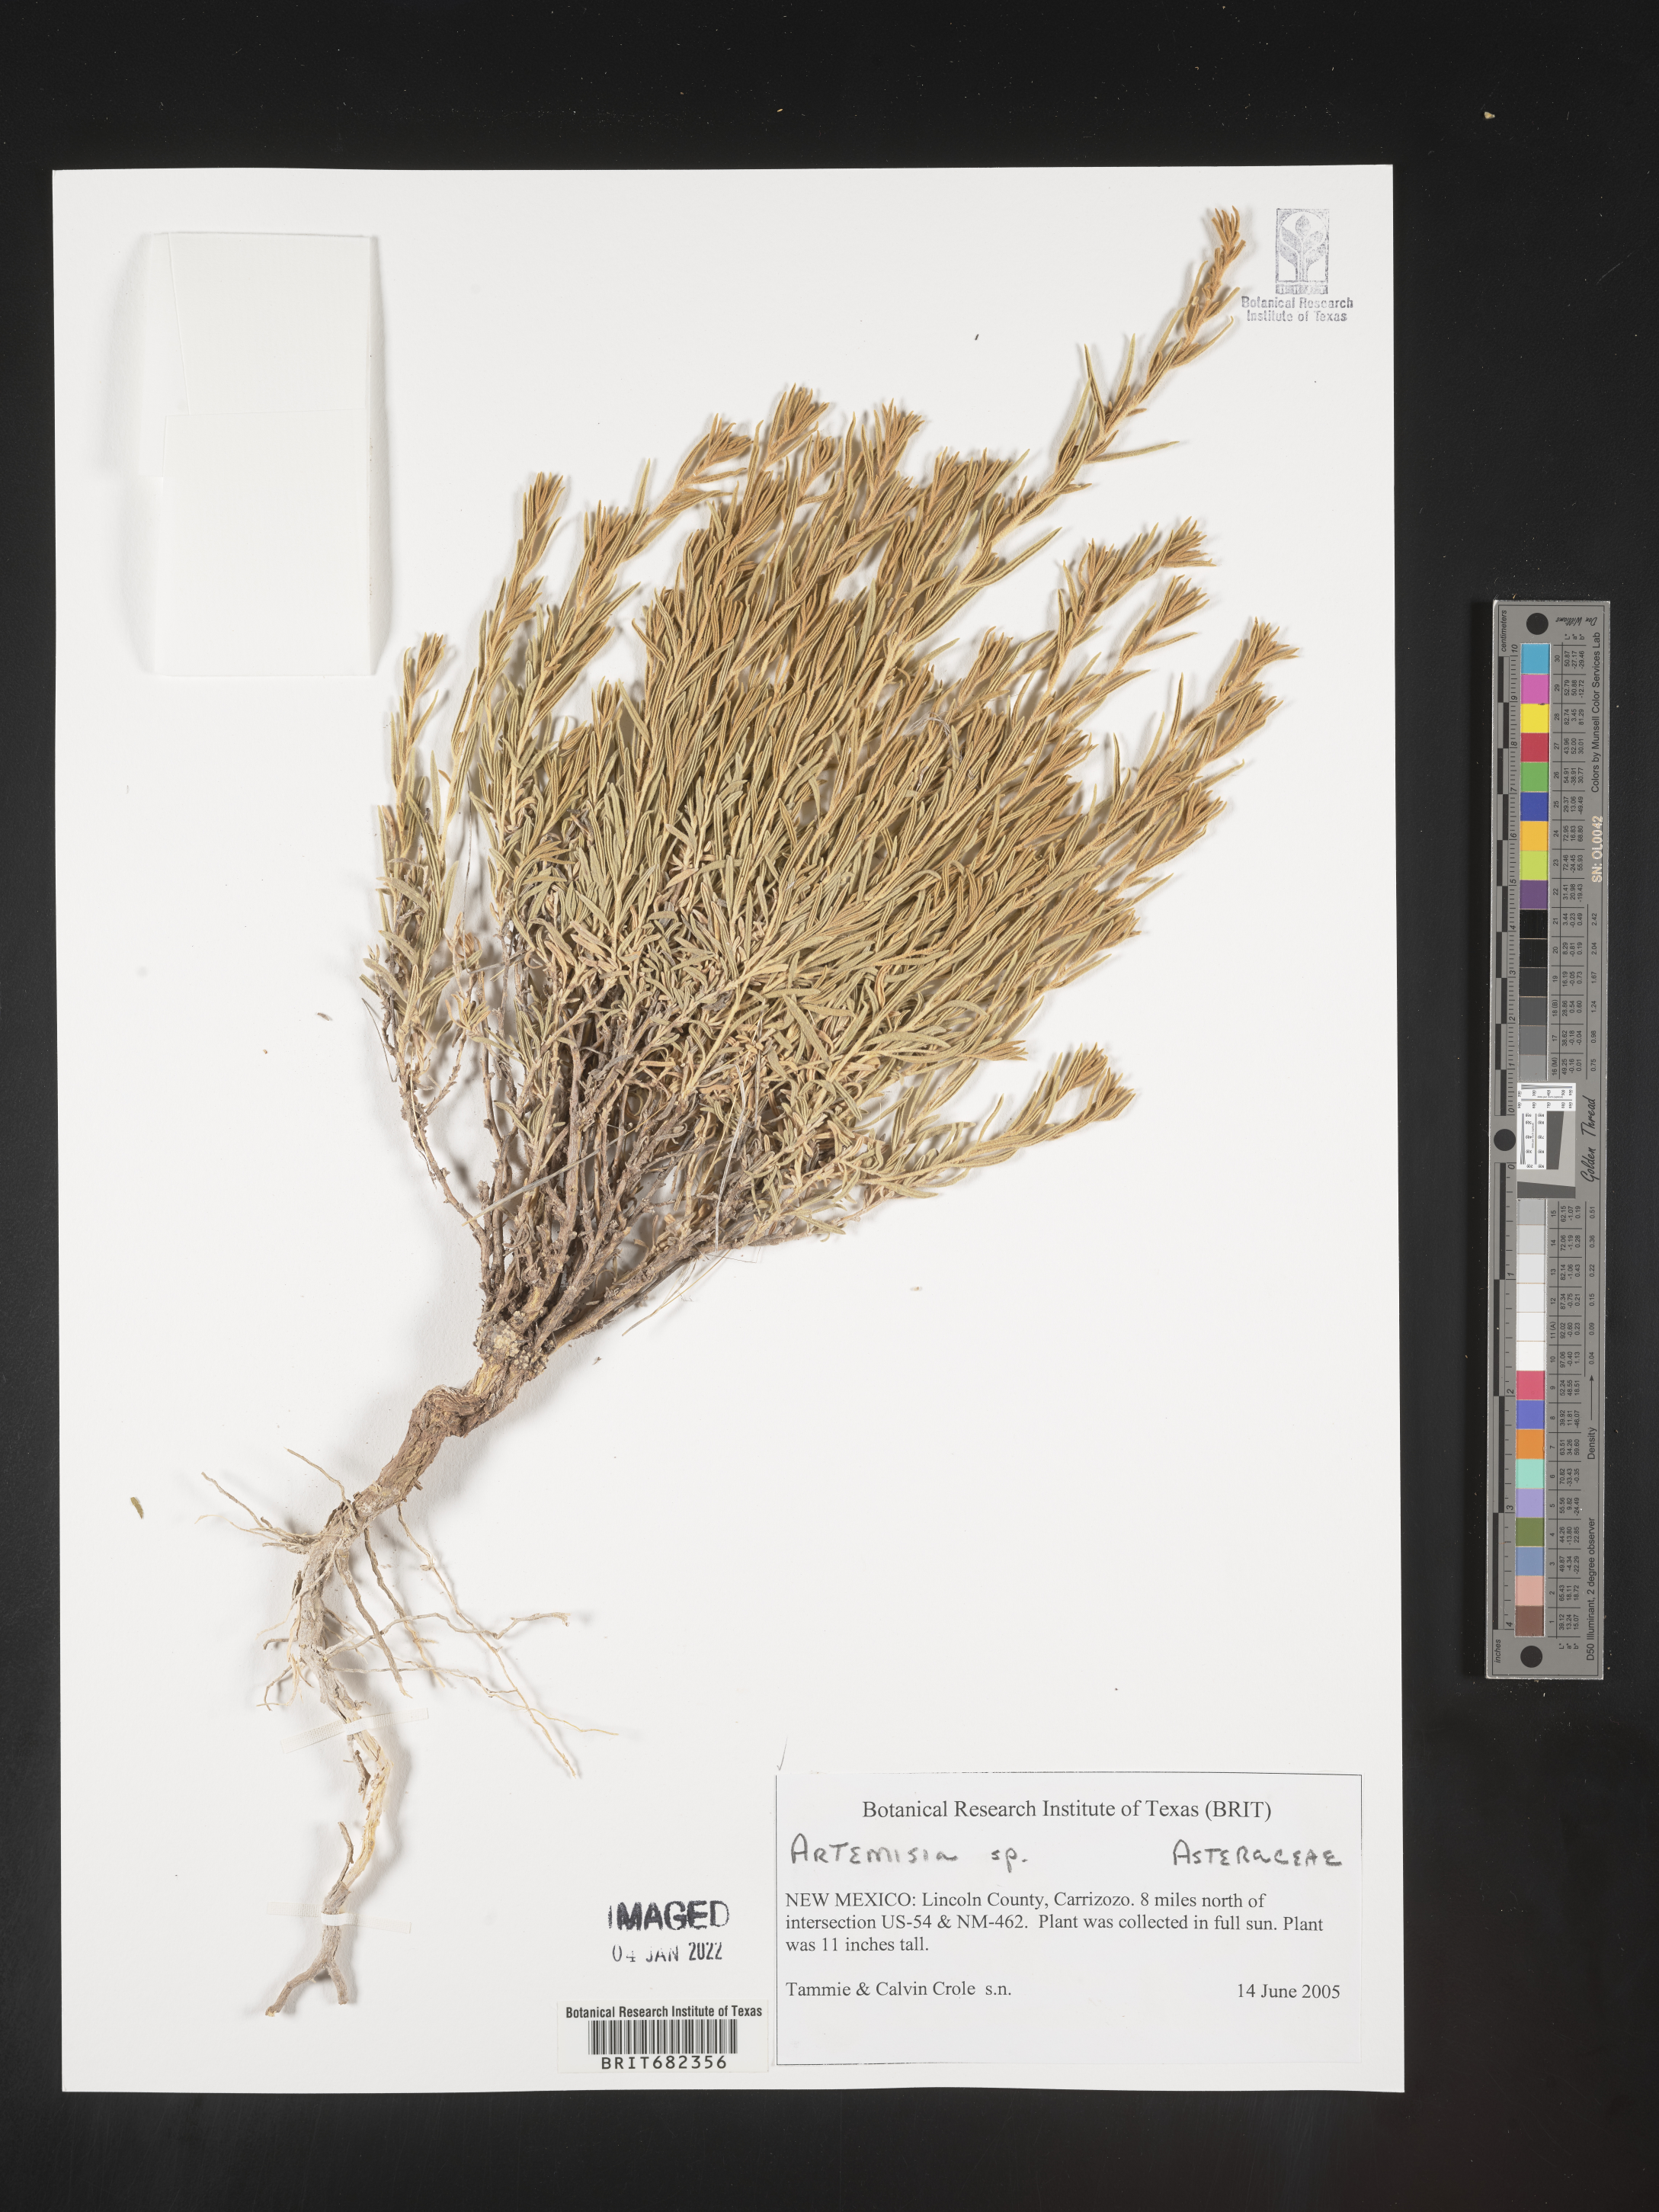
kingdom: Plantae
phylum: Tracheophyta
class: Magnoliopsida
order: Asterales
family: Asteraceae
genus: Artemisia
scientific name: Artemisia
